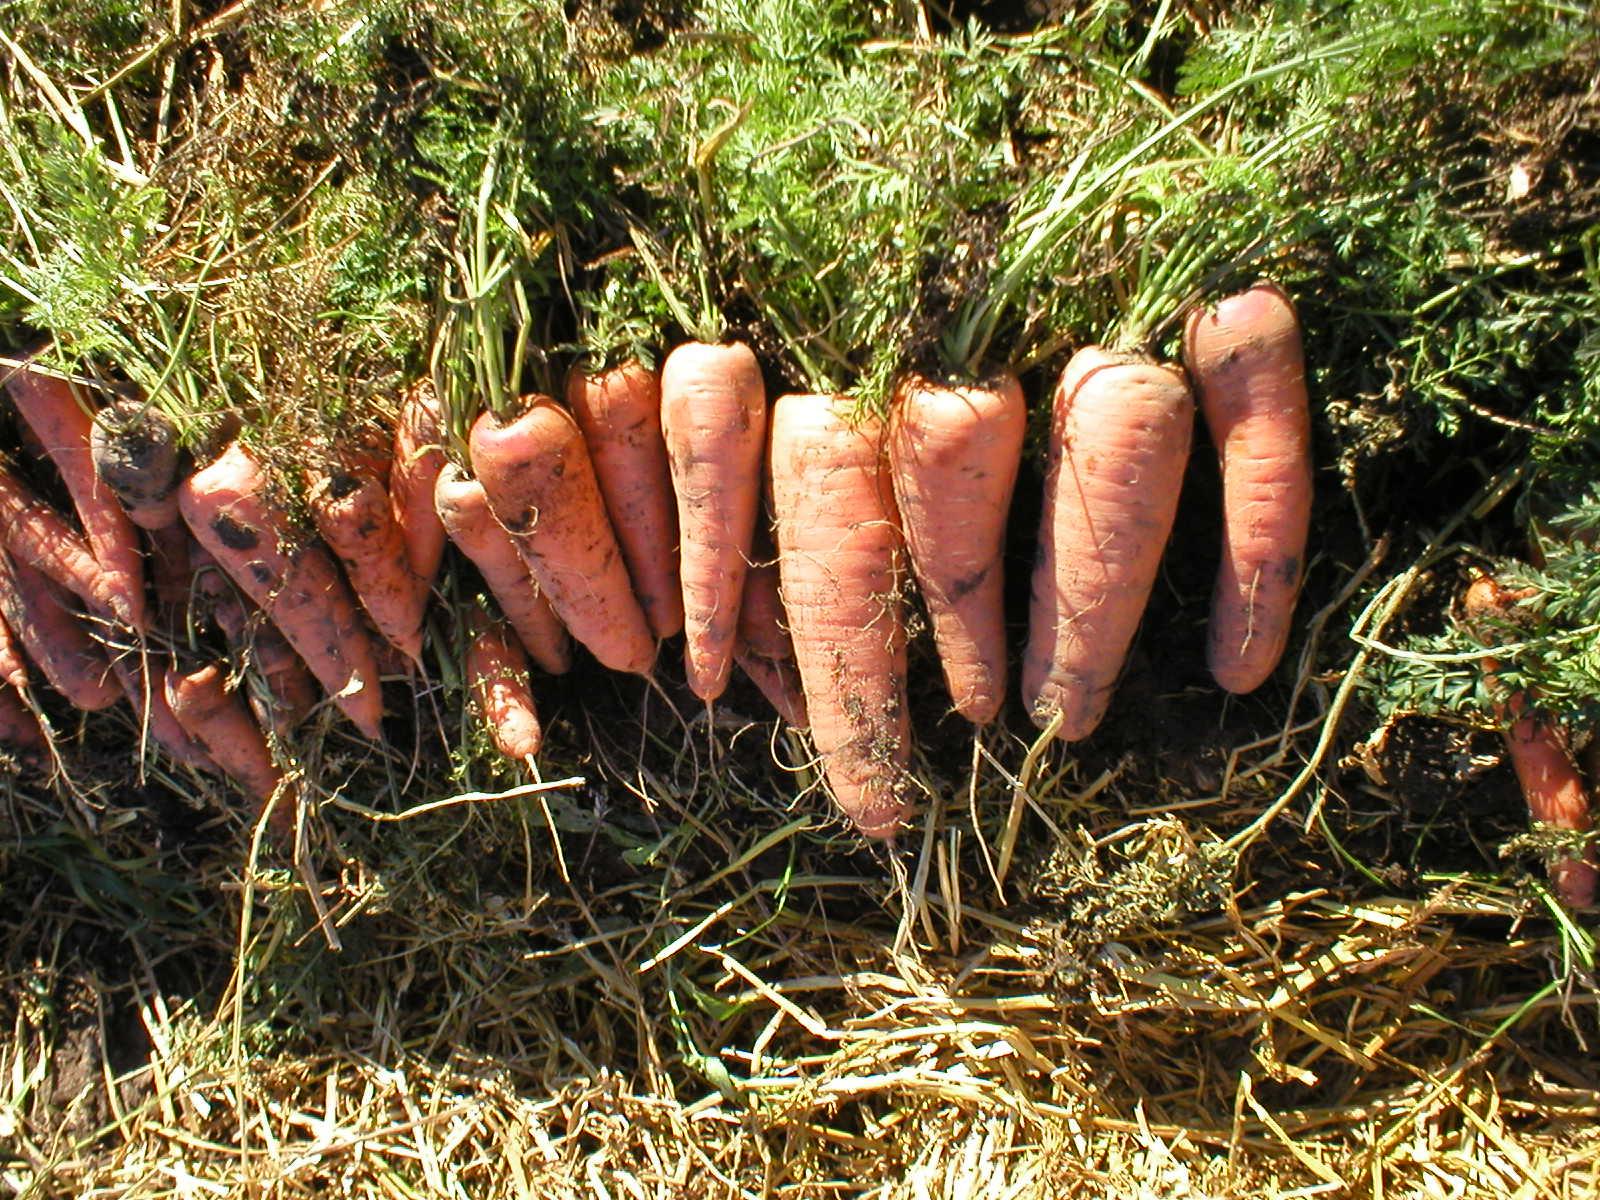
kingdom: Plantae
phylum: Tracheophyta
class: Magnoliopsida
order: Apiales
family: Apiaceae
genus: Daucus
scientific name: Daucus carota
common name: Wild carrot
